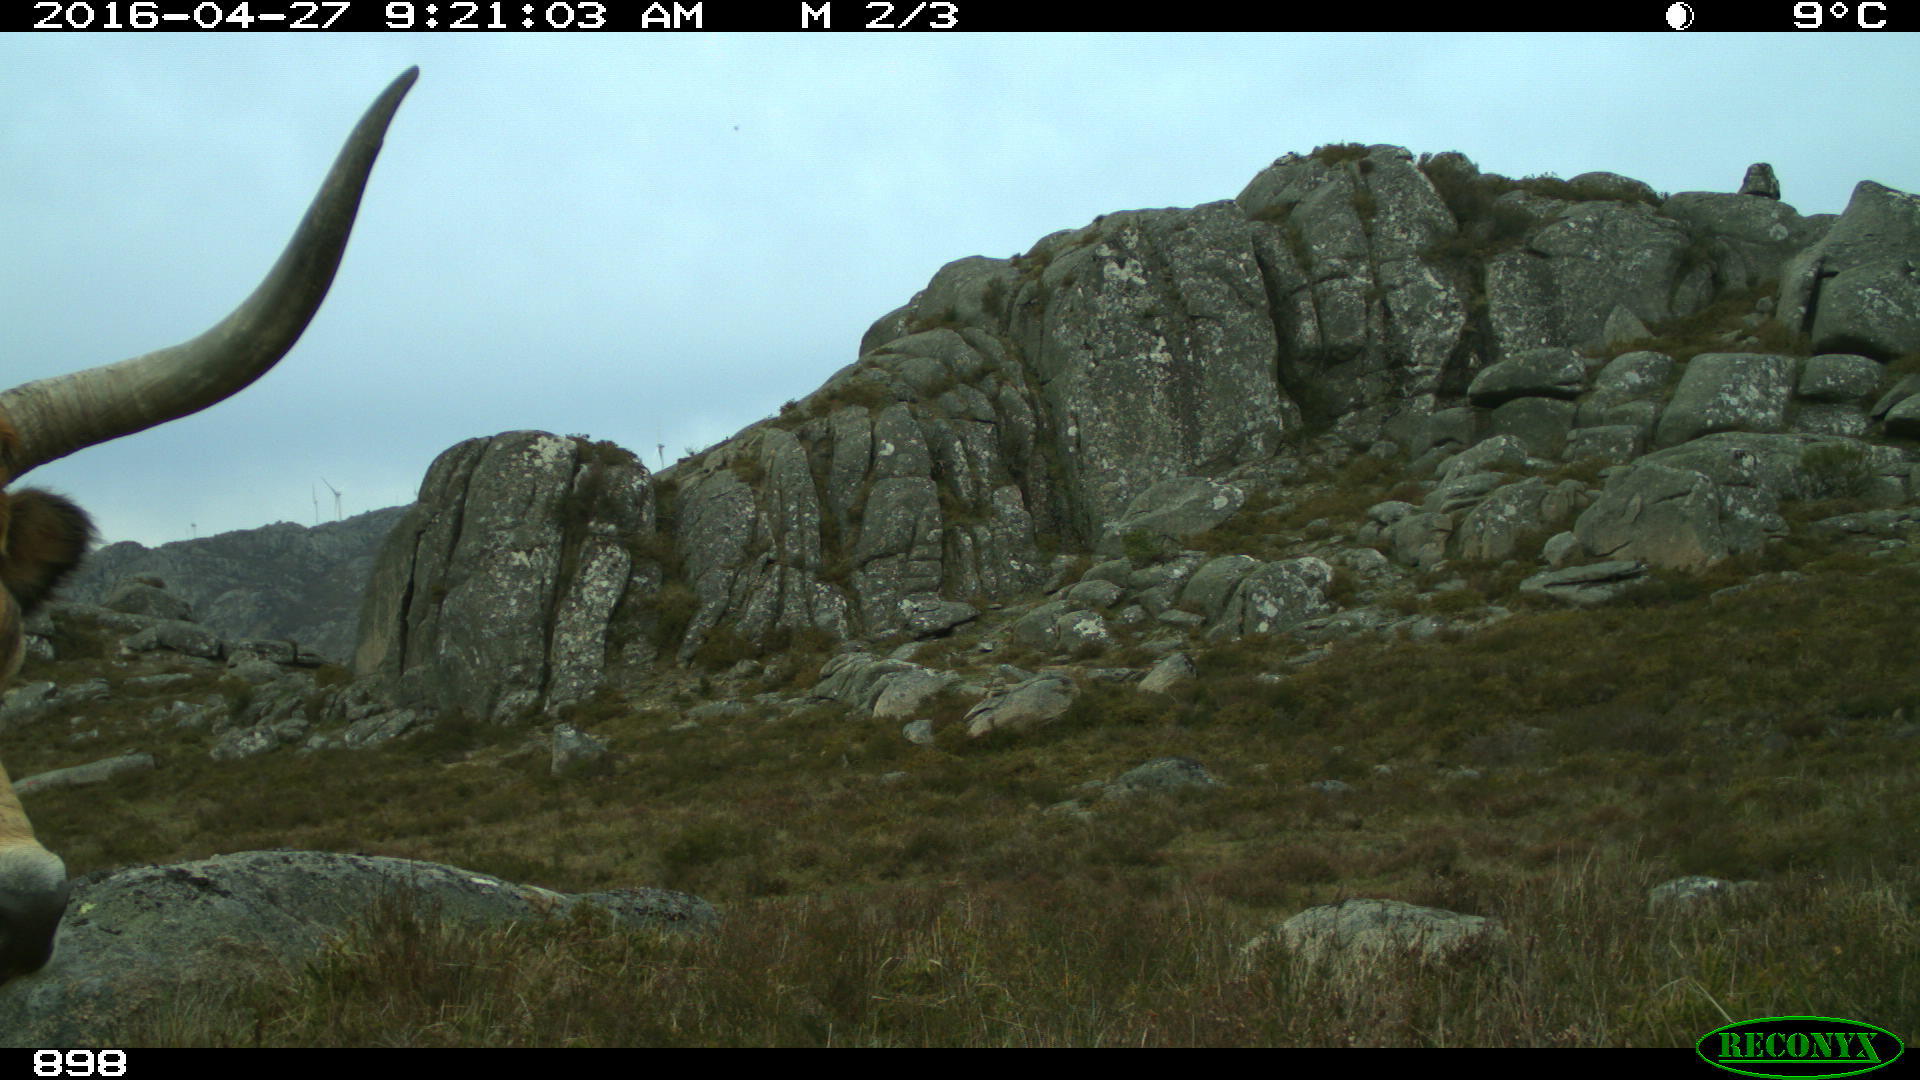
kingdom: Animalia
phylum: Chordata
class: Mammalia
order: Artiodactyla
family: Bovidae
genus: Bos
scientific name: Bos taurus
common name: Domesticated cattle
